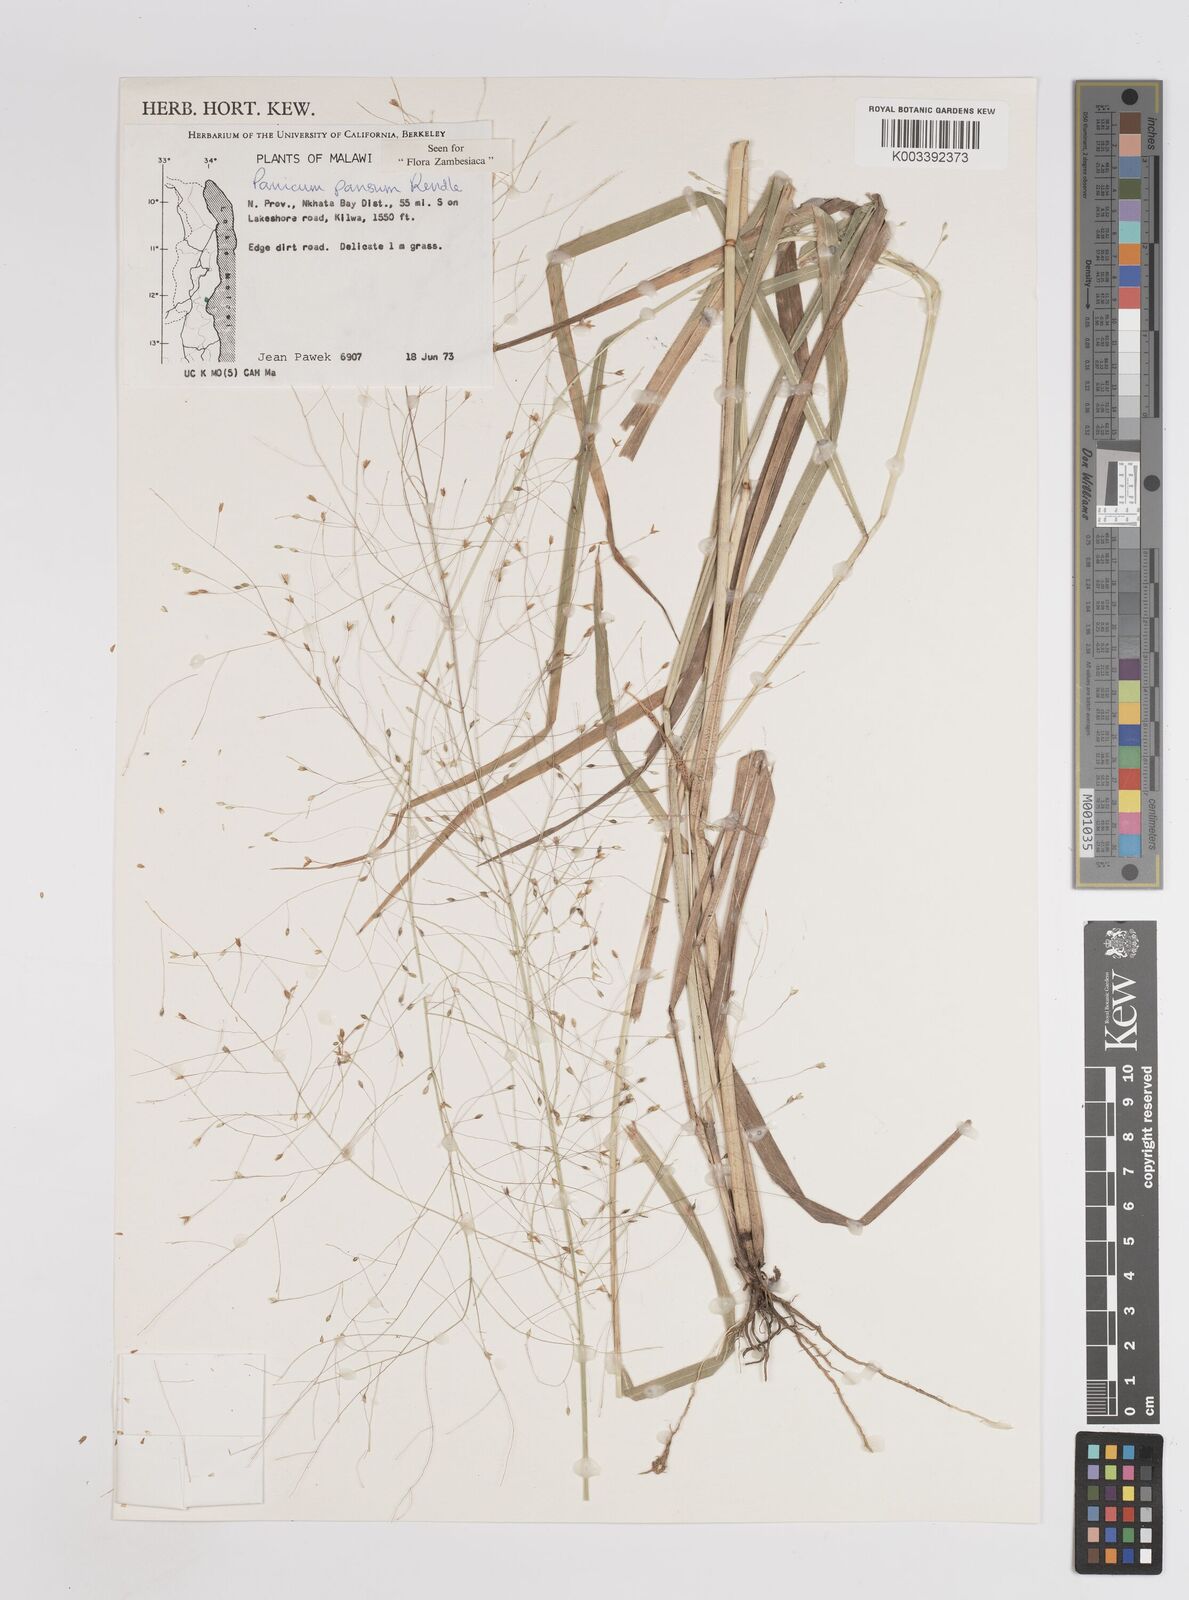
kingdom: Plantae
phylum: Tracheophyta
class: Liliopsida
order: Poales
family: Poaceae
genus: Panicum
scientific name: Panicum pansum
